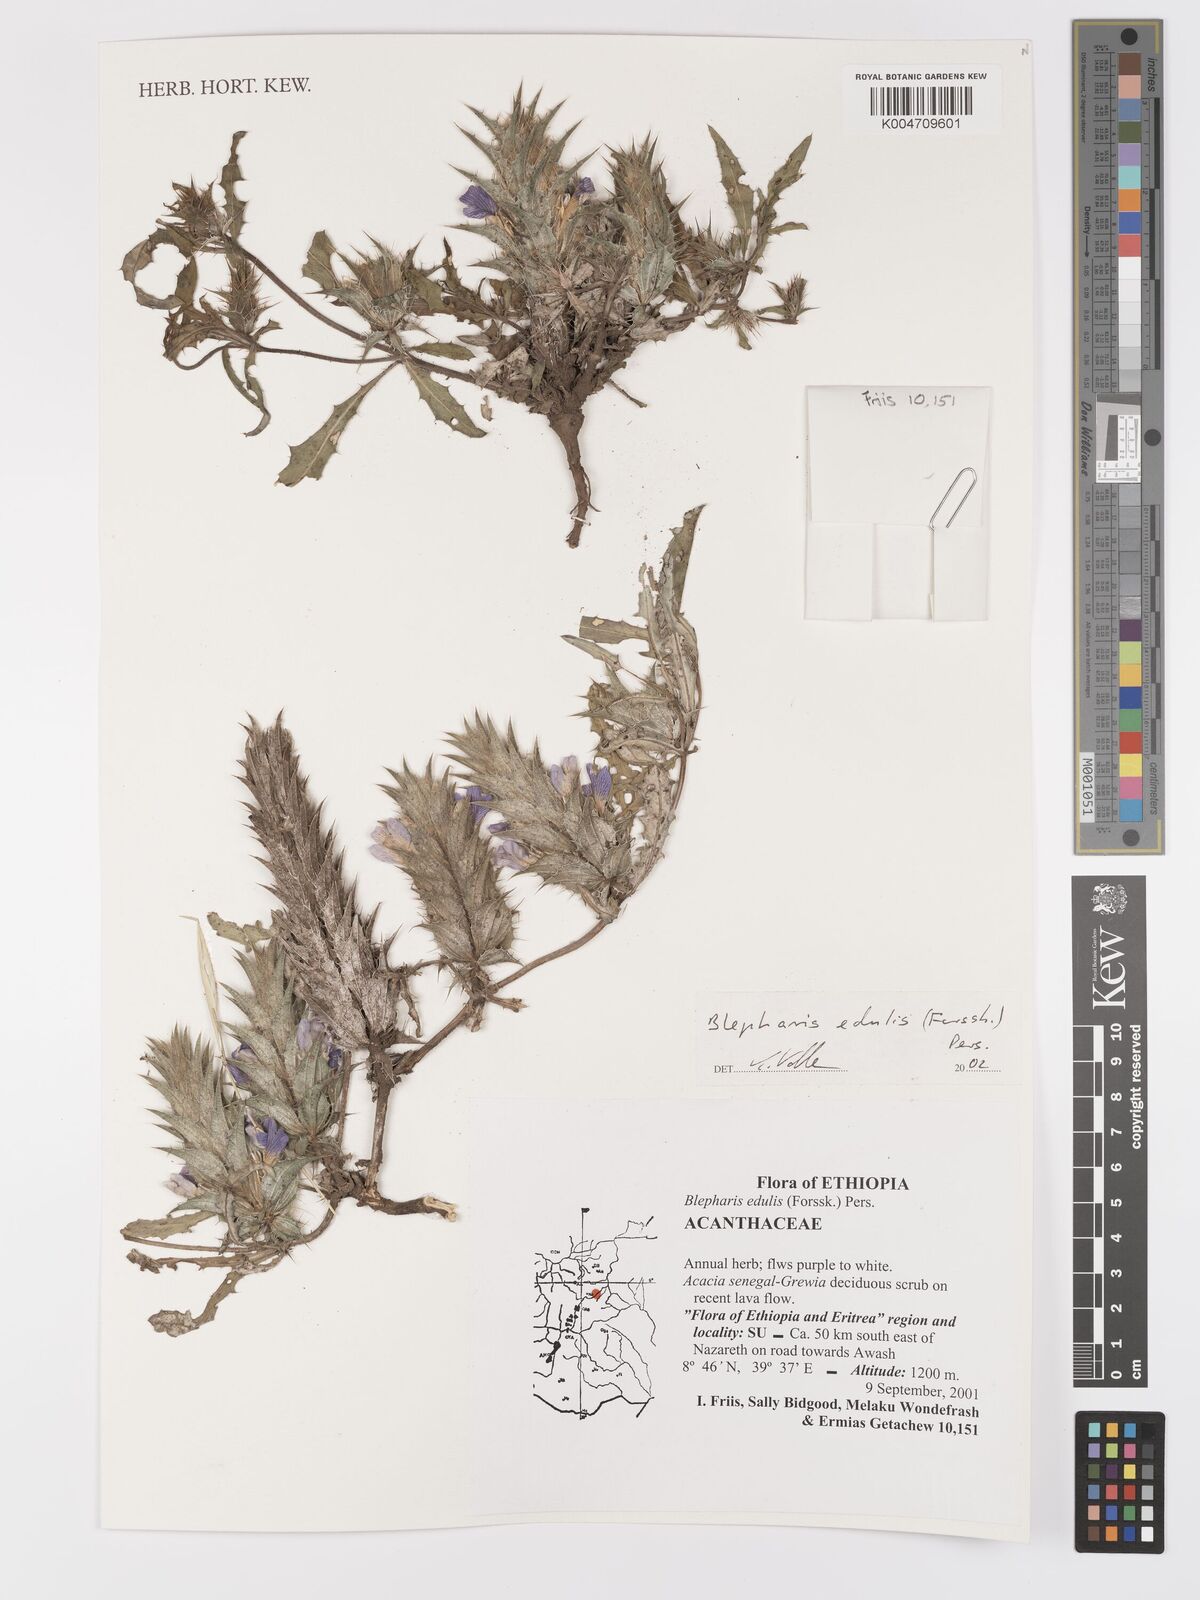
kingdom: Plantae
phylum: Tracheophyta
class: Magnoliopsida
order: Lamiales
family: Acanthaceae
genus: Blepharis
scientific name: Blepharis edulis
